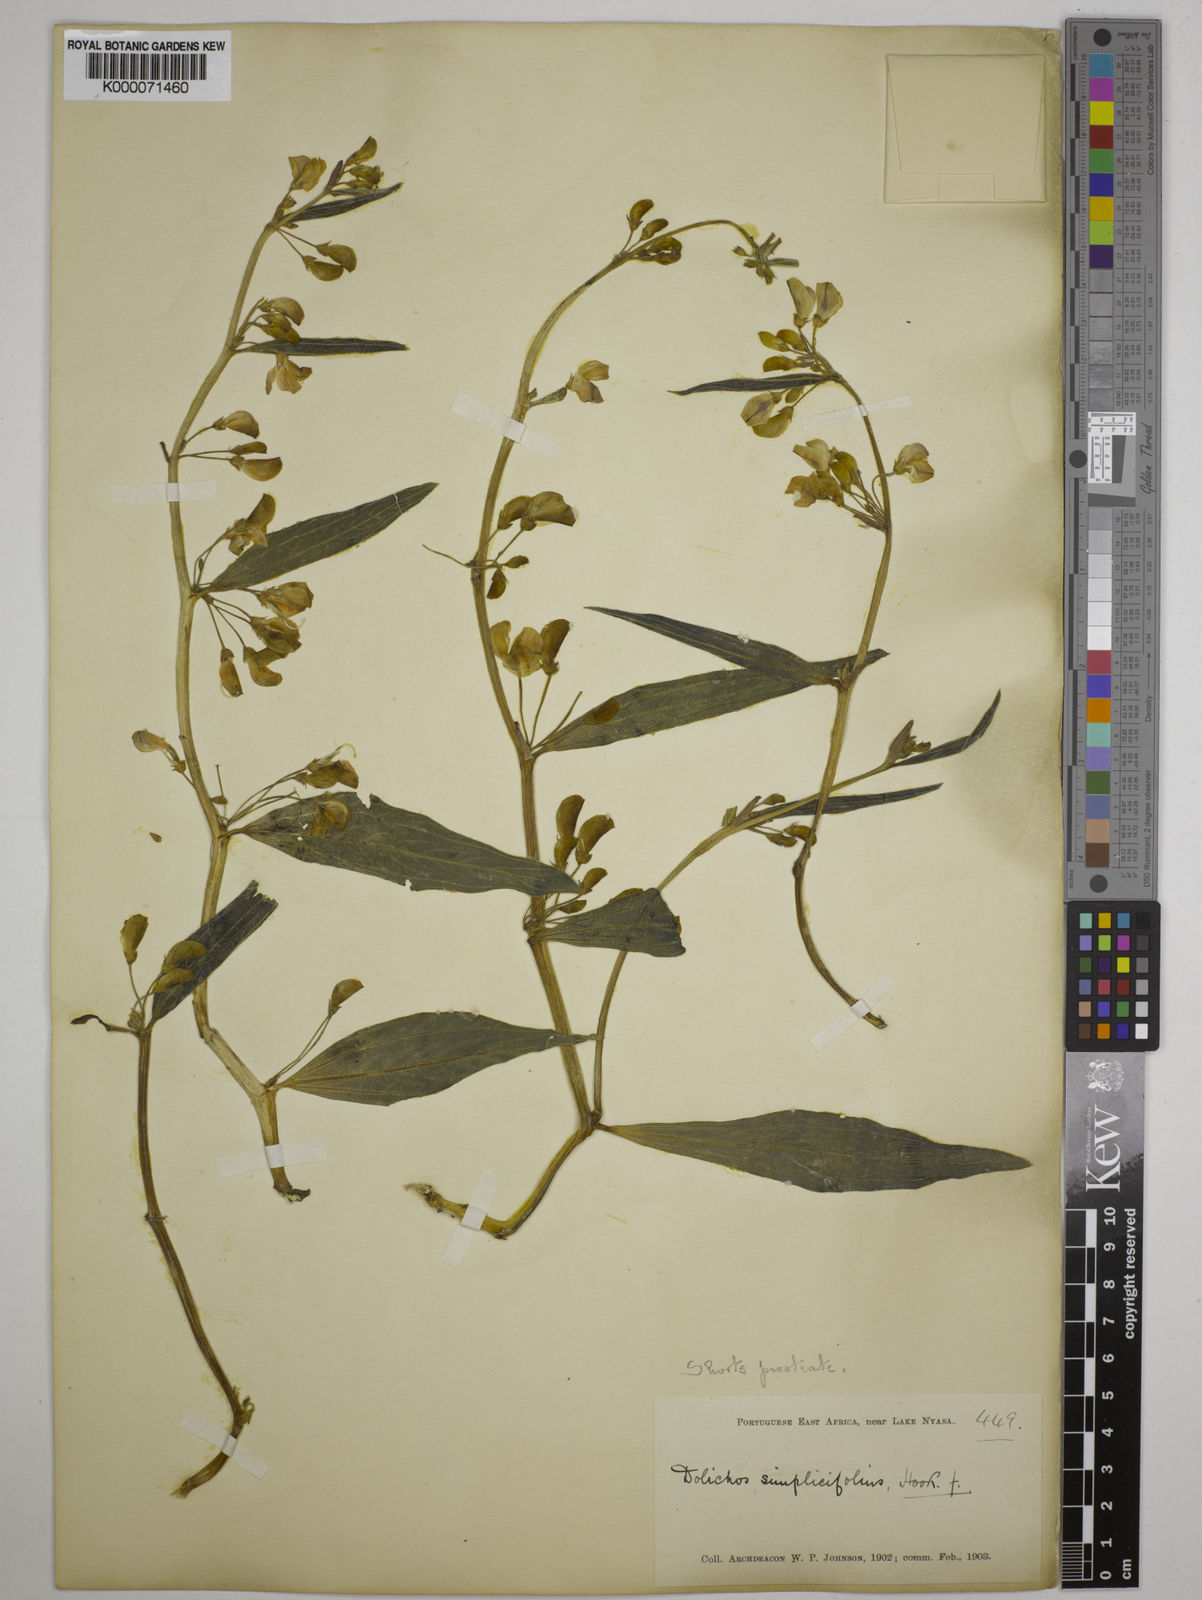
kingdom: Plantae
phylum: Tracheophyta
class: Magnoliopsida
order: Fabales
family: Fabaceae
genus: Dolichos
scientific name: Dolichos simplicifolius
